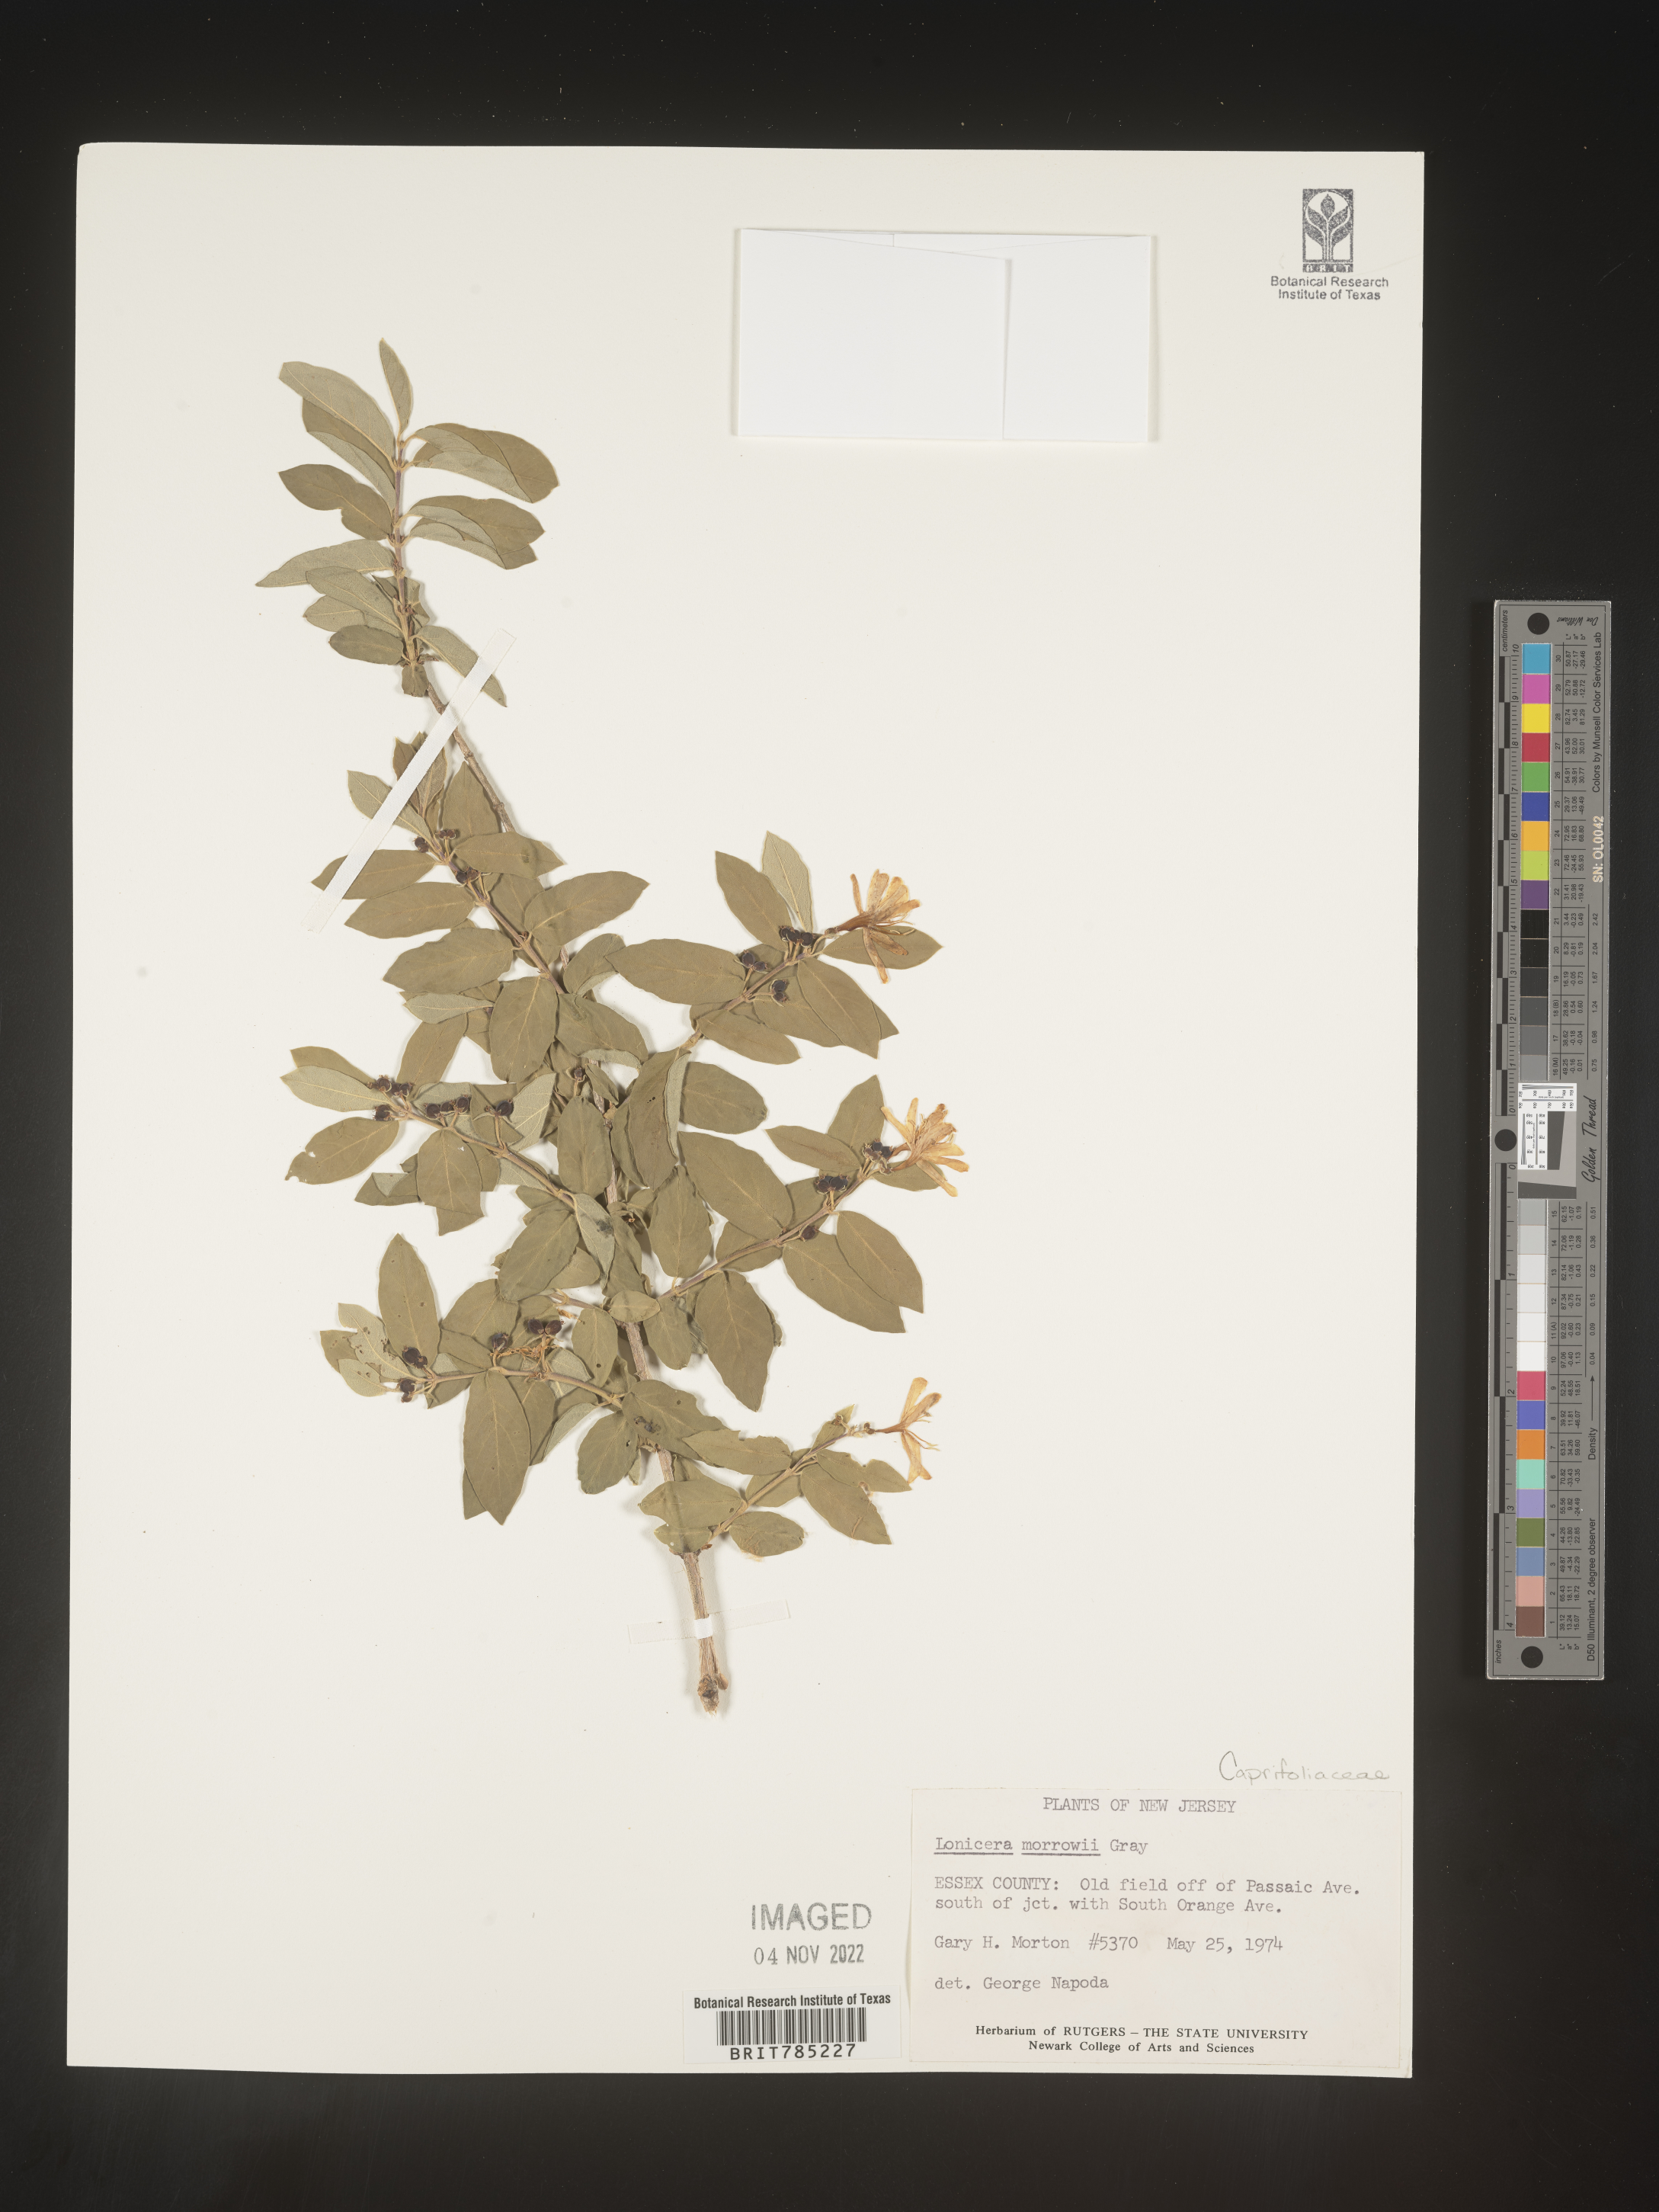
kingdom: Plantae
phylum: Tracheophyta
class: Magnoliopsida
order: Dipsacales
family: Caprifoliaceae
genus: Lonicera
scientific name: Lonicera
